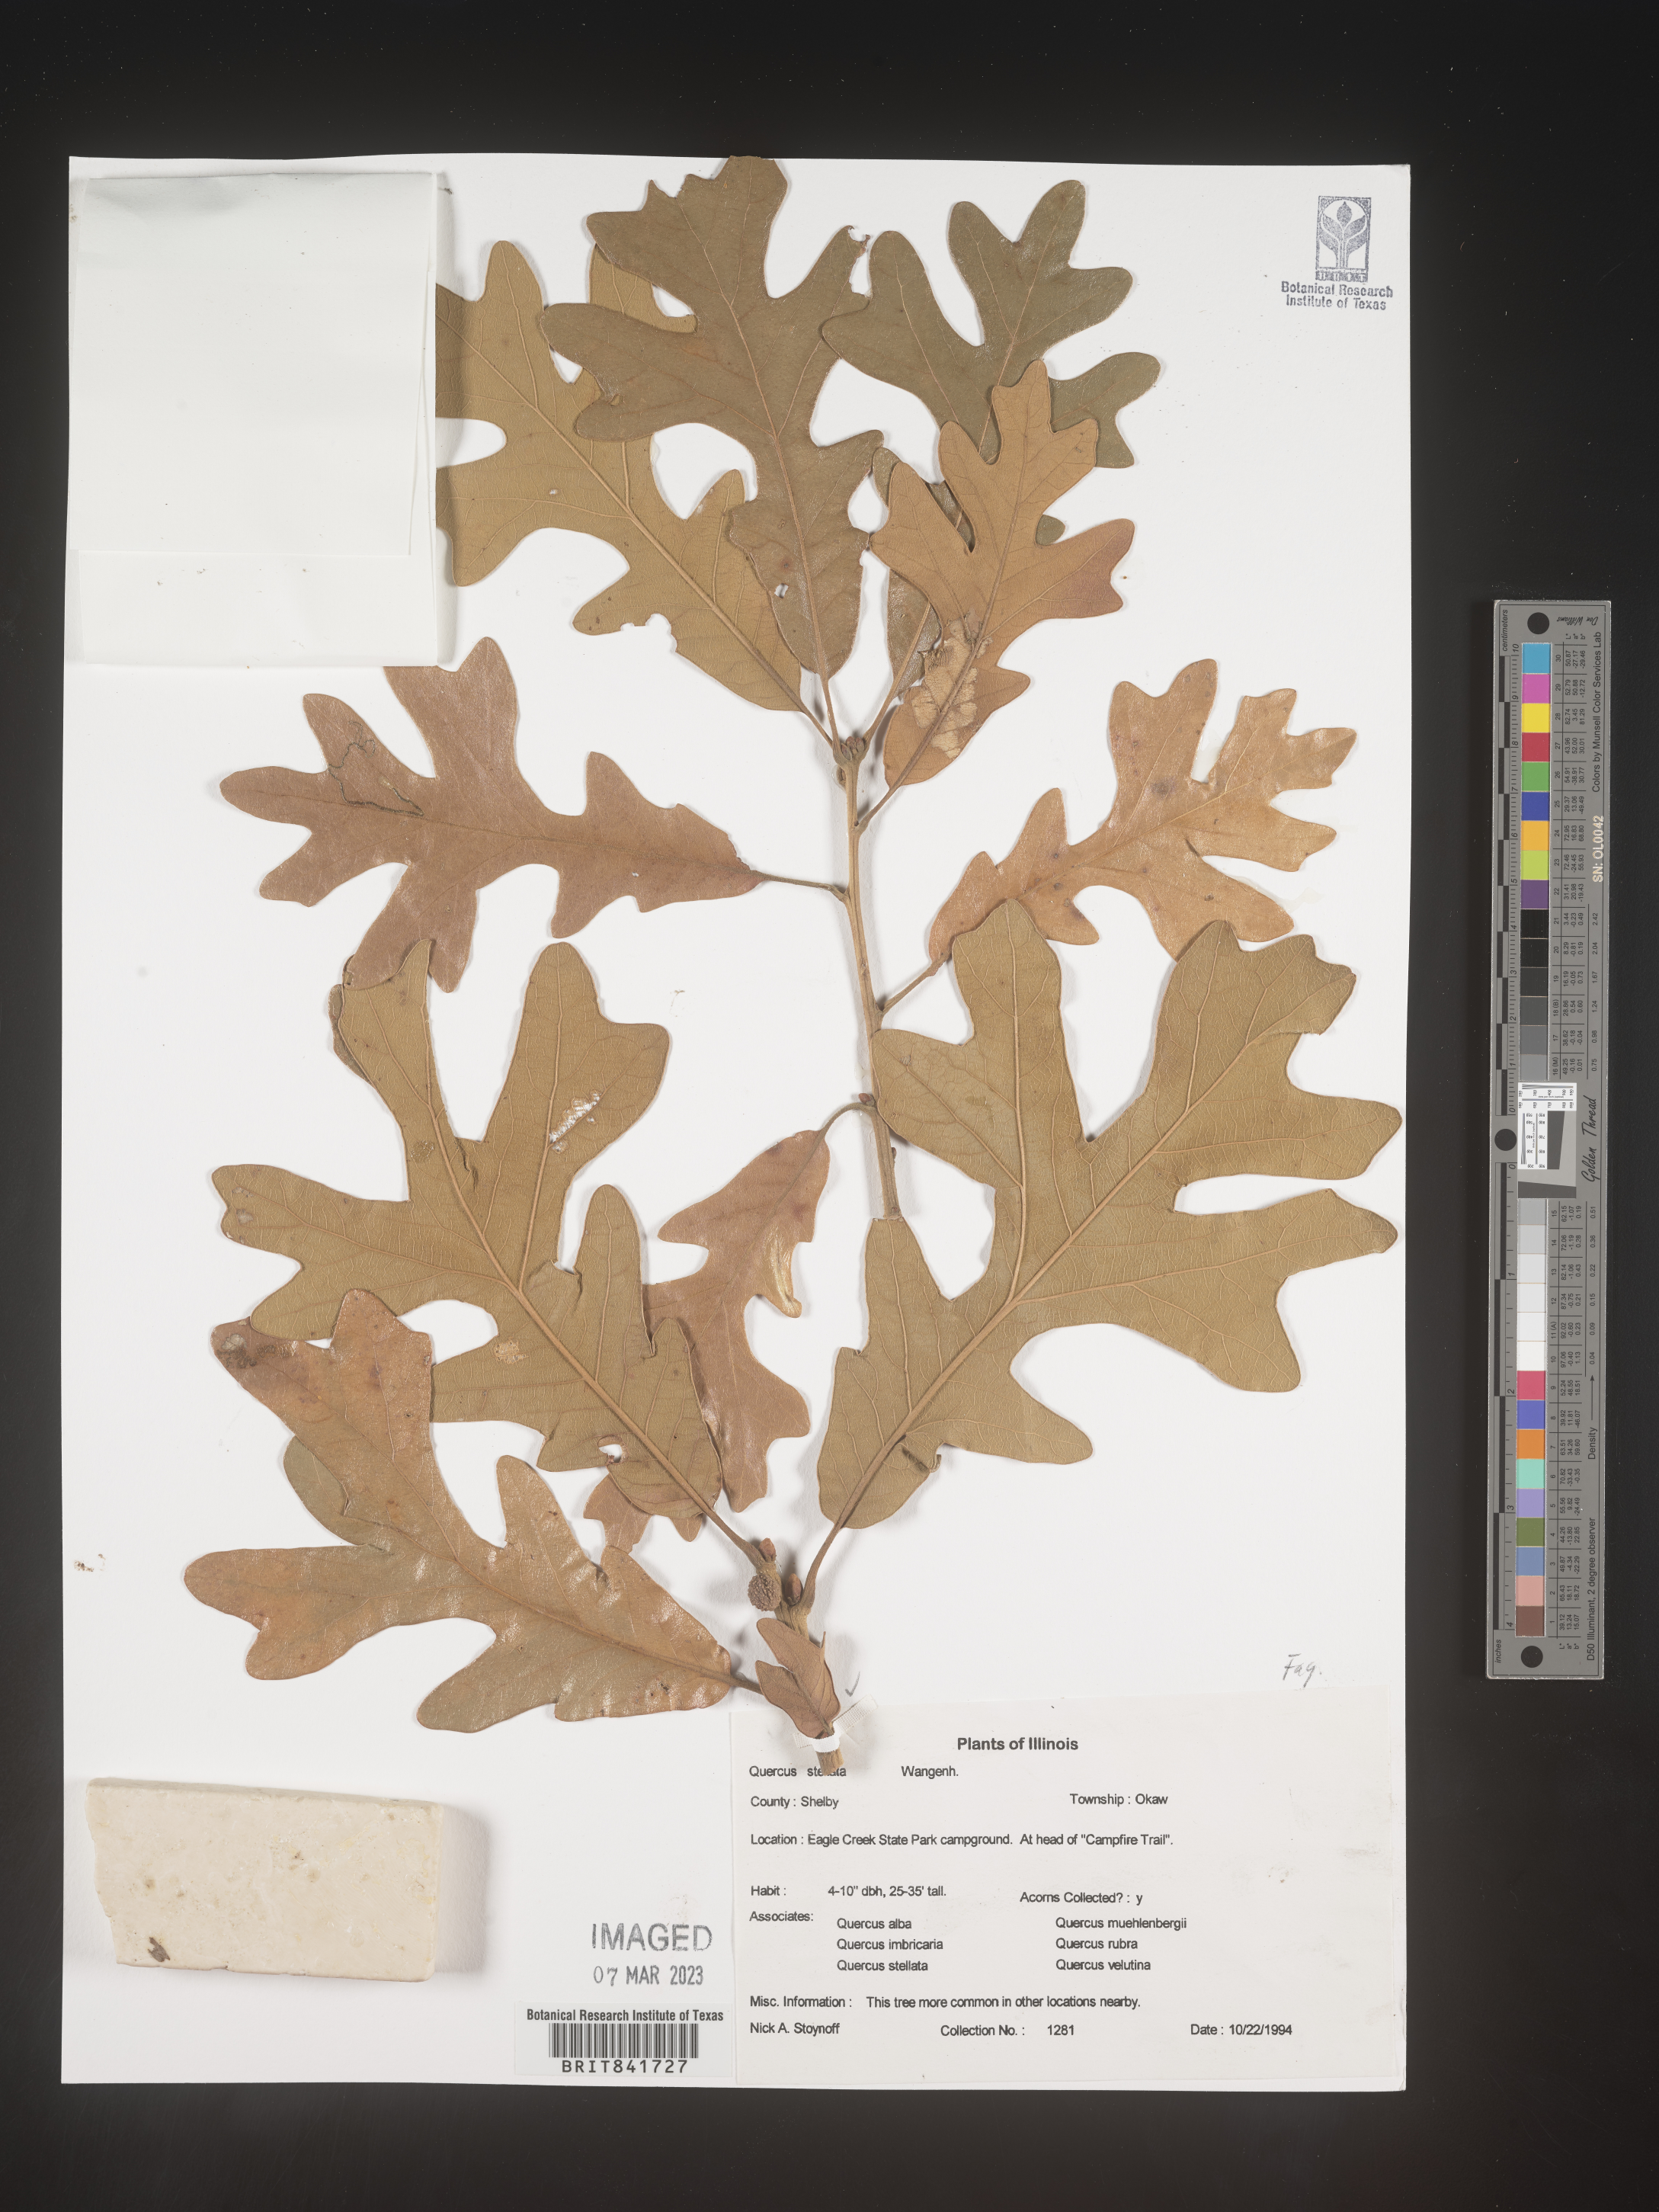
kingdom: Plantae
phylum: Tracheophyta
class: Magnoliopsida
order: Fagales
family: Fagaceae
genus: Quercus
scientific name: Quercus stellata
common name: Post oak
